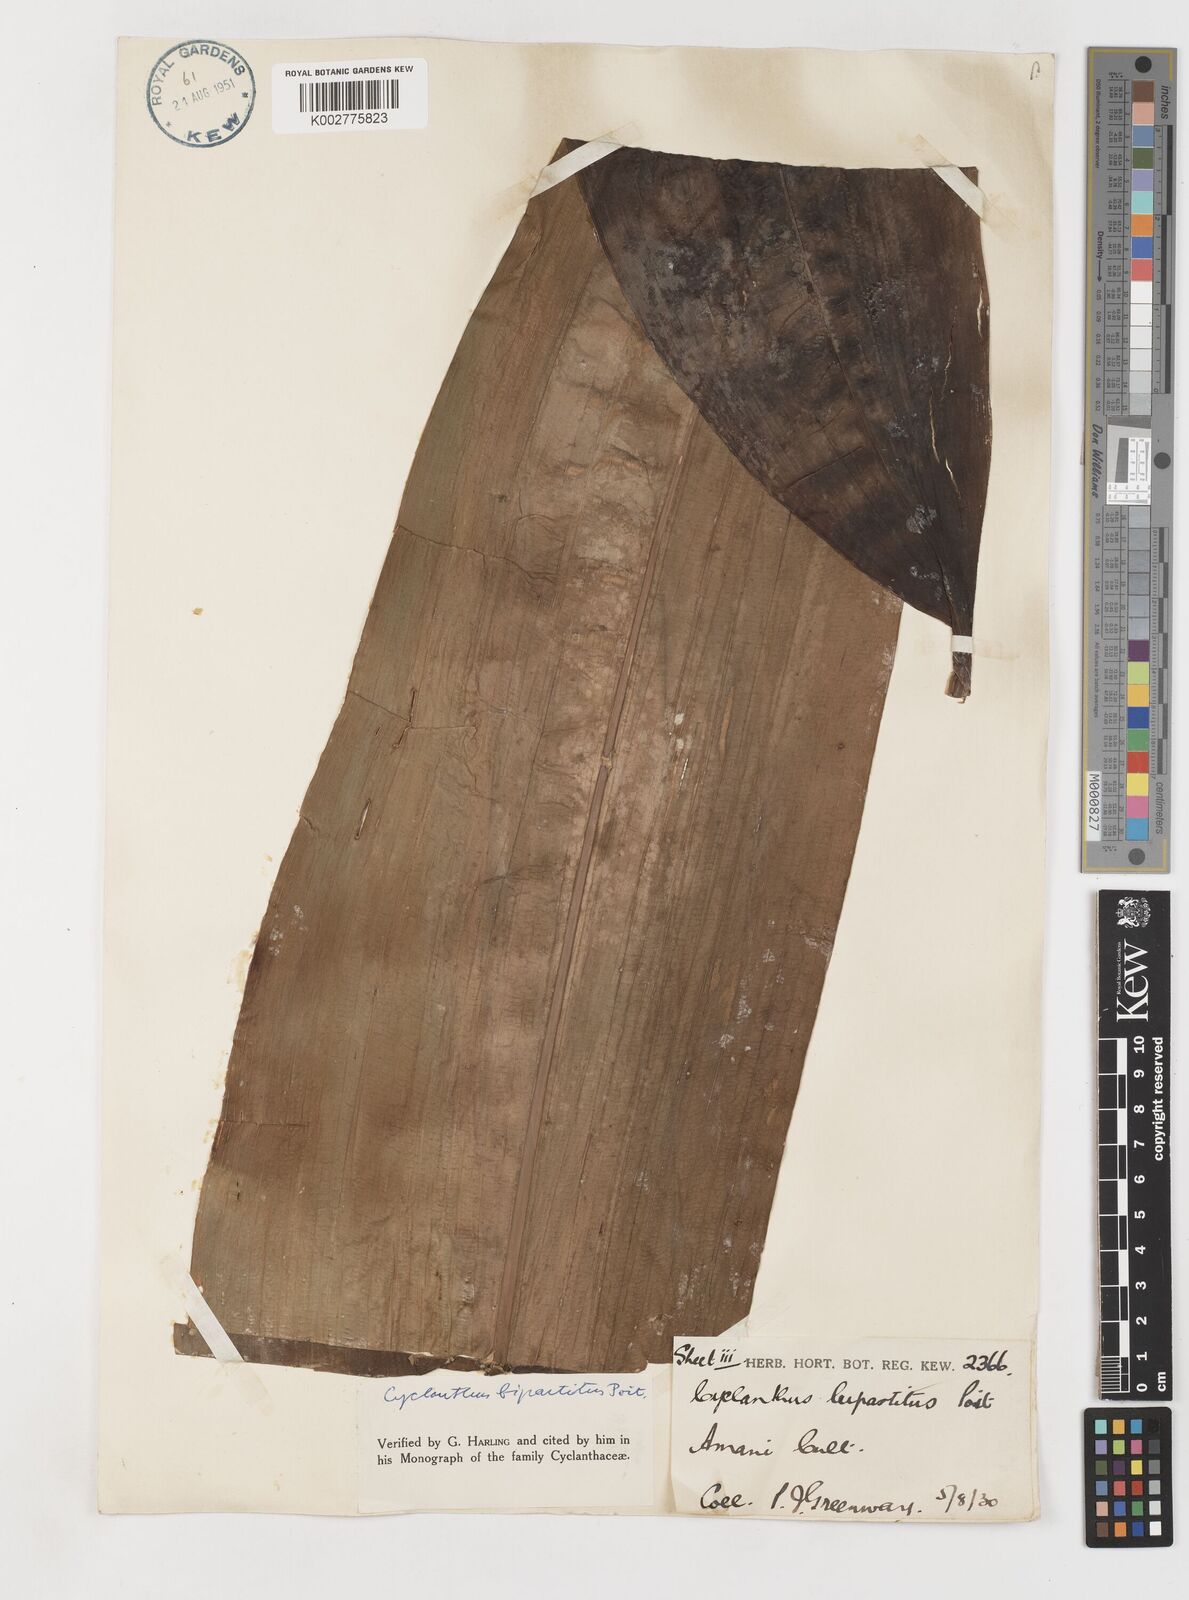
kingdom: Plantae
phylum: Tracheophyta
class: Liliopsida
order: Pandanales
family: Cyclanthaceae
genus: Cyclanthus
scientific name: Cyclanthus bipartitus
